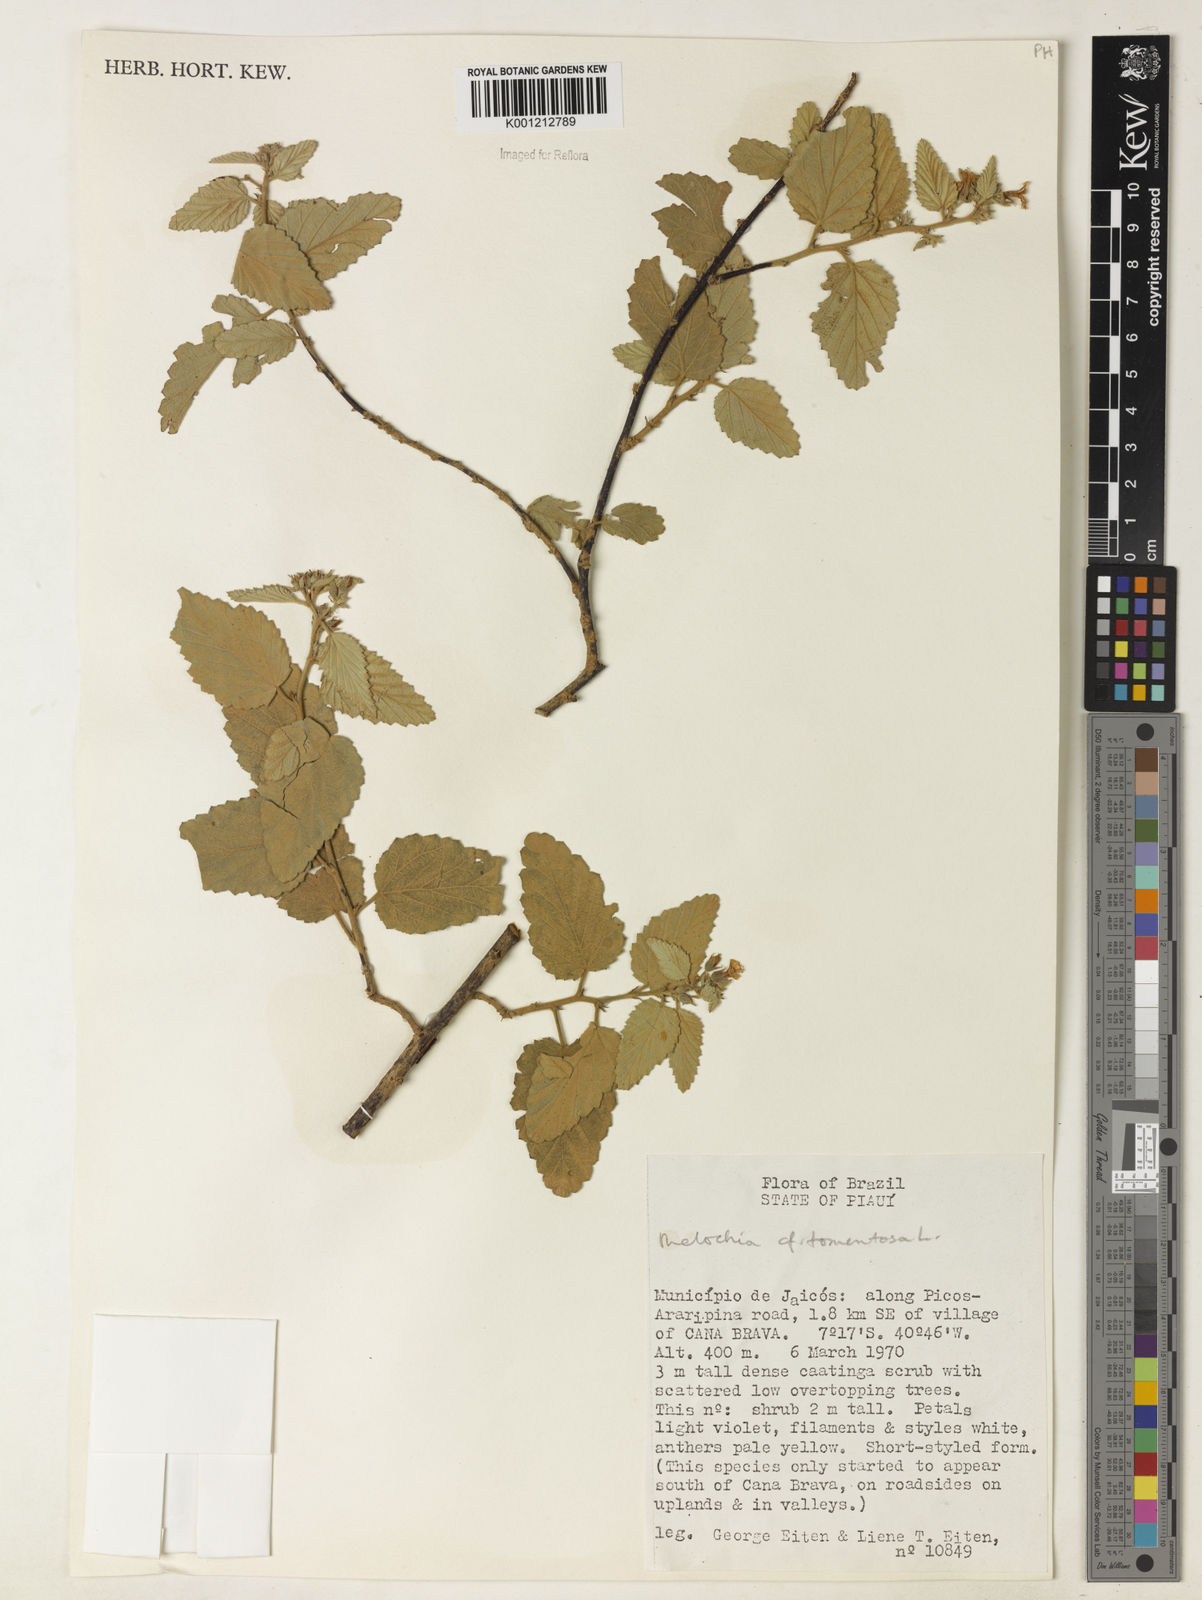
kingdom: Plantae
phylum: Tracheophyta
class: Magnoliopsida
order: Malvales
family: Malvaceae
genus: Melochia
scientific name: Melochia betonicifolia
